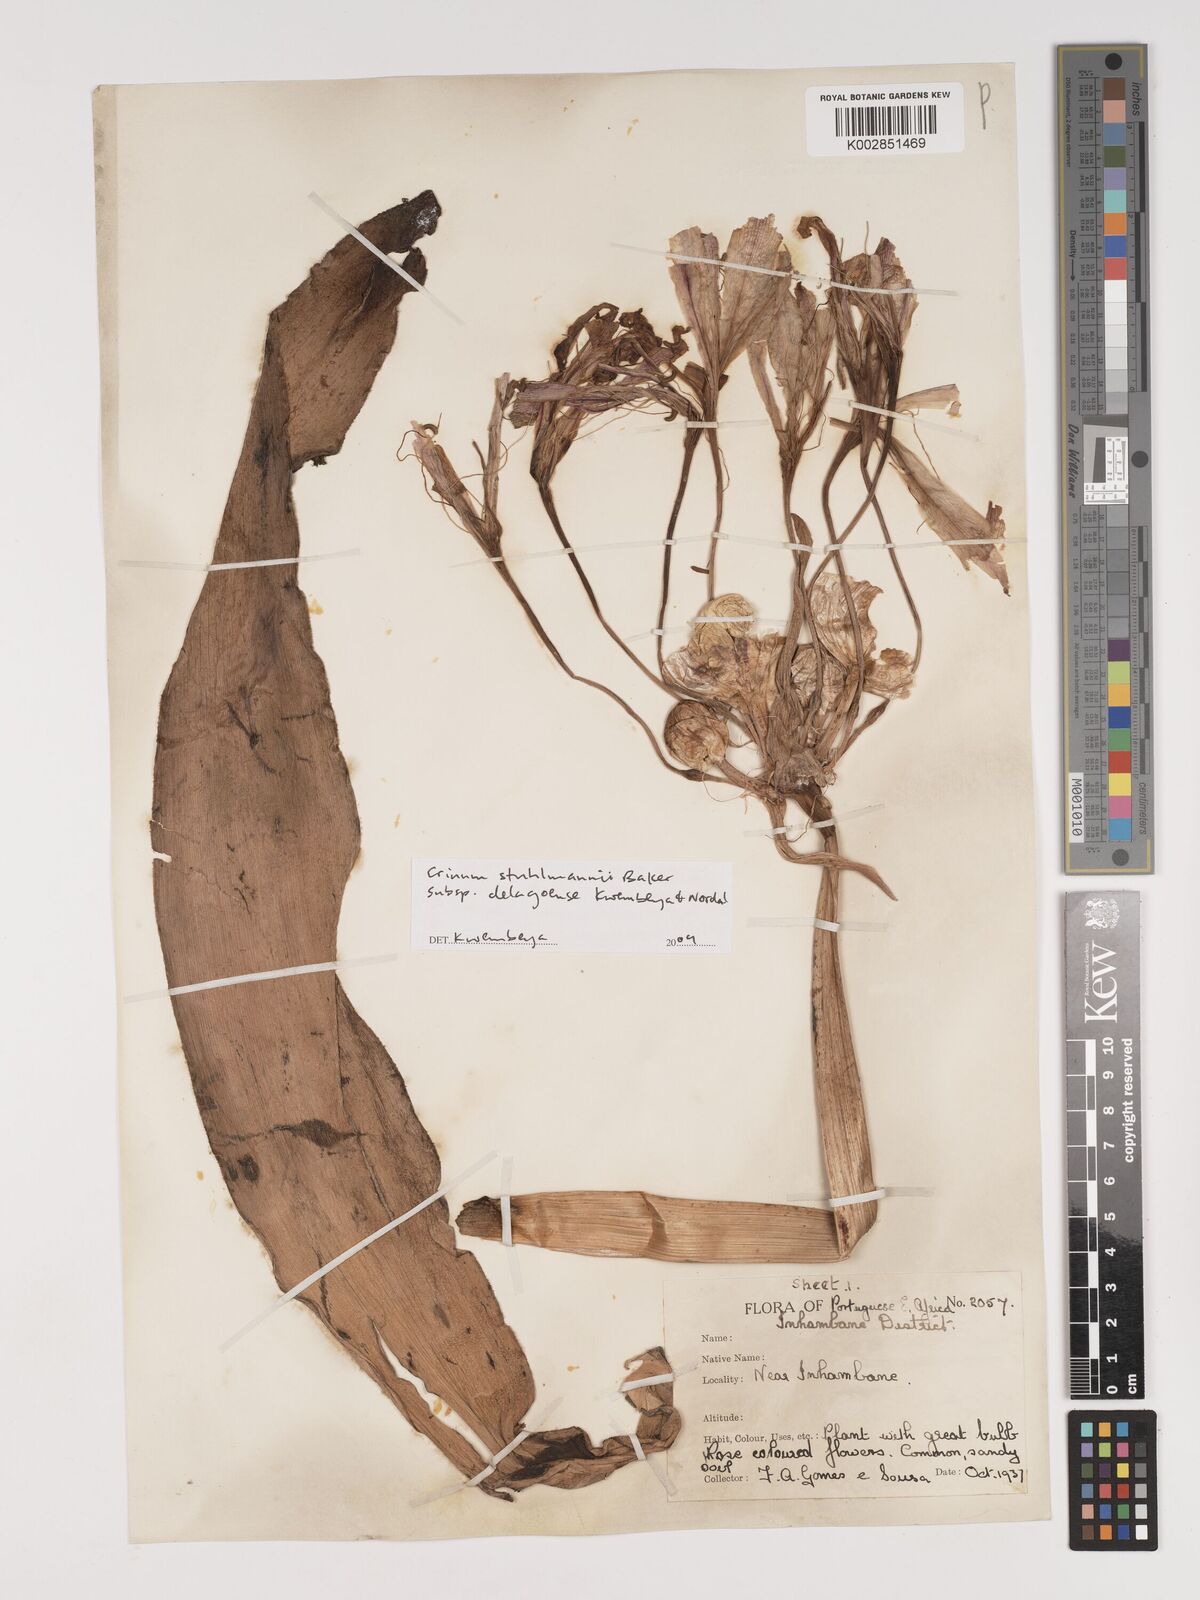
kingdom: Plantae
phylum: Tracheophyta
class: Liliopsida
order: Asparagales
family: Amaryllidaceae
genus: Crinum
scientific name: Crinum stuhlmannii
